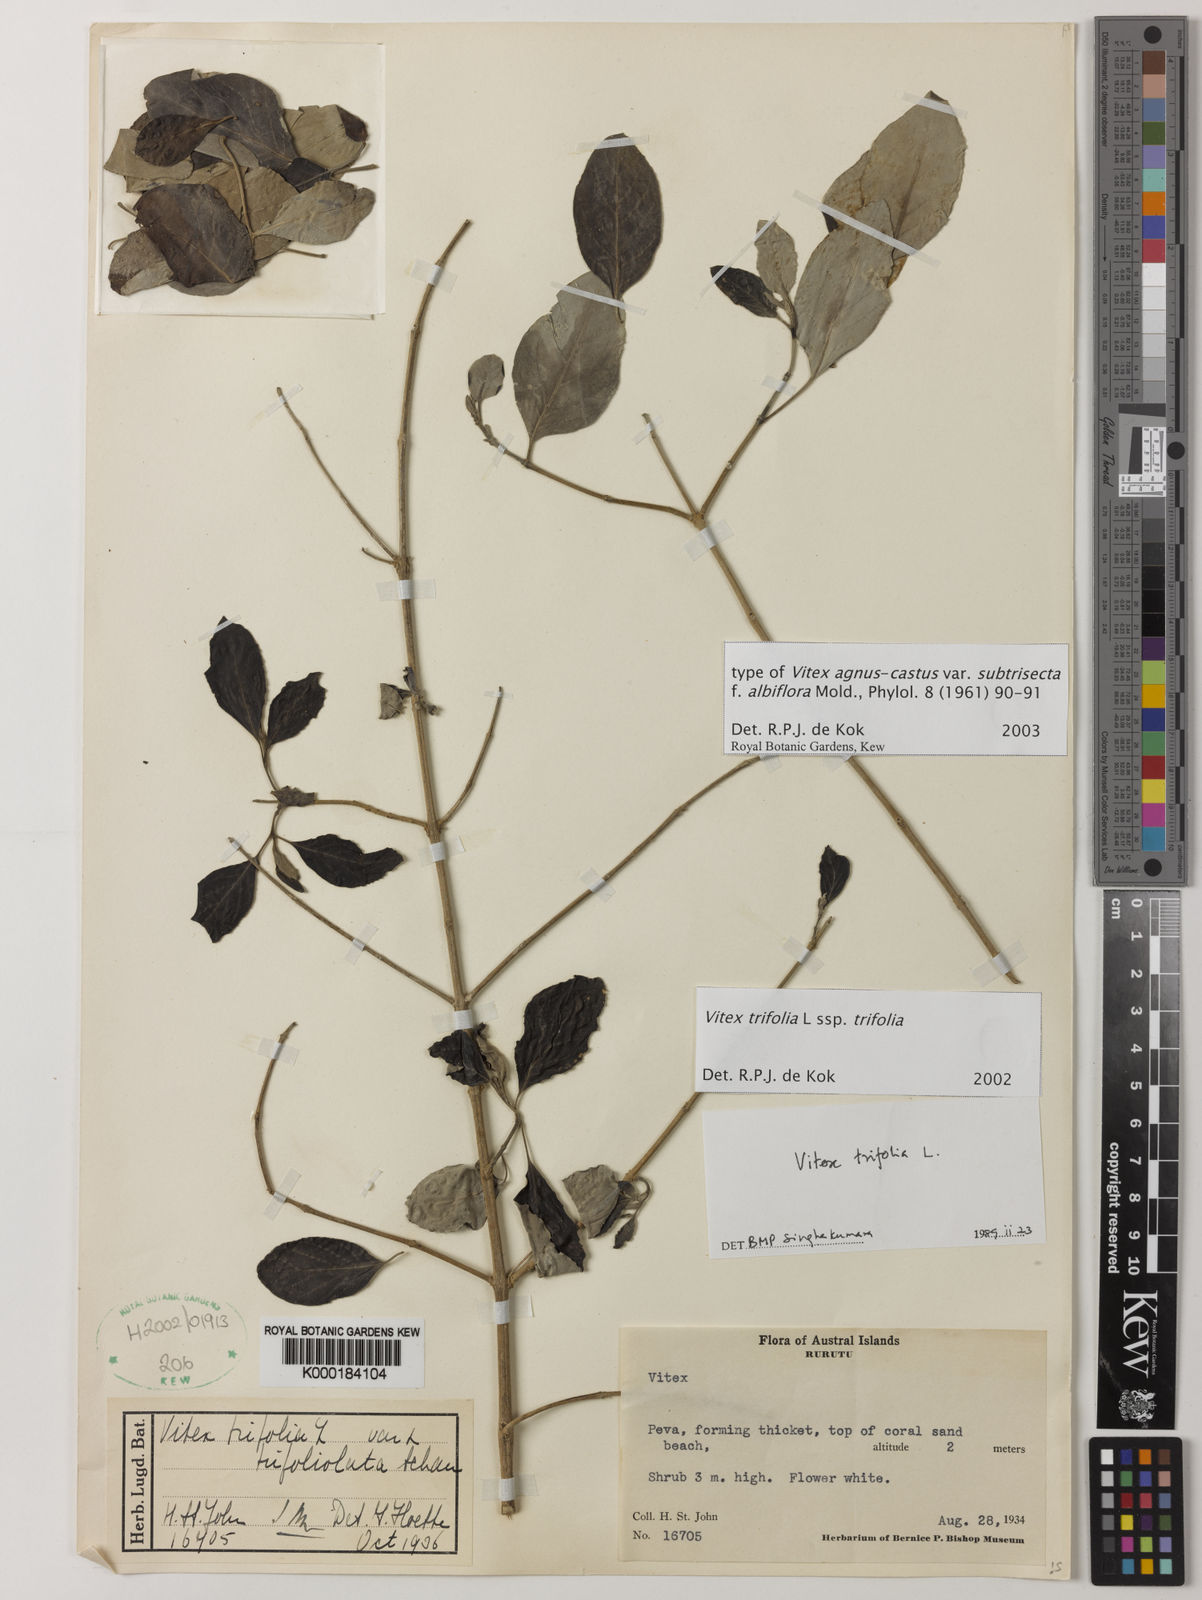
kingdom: Plantae
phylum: Tracheophyta
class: Magnoliopsida
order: Lamiales
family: Lamiaceae
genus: Vitex
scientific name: Vitex agnus-castus
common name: Chasteberry
